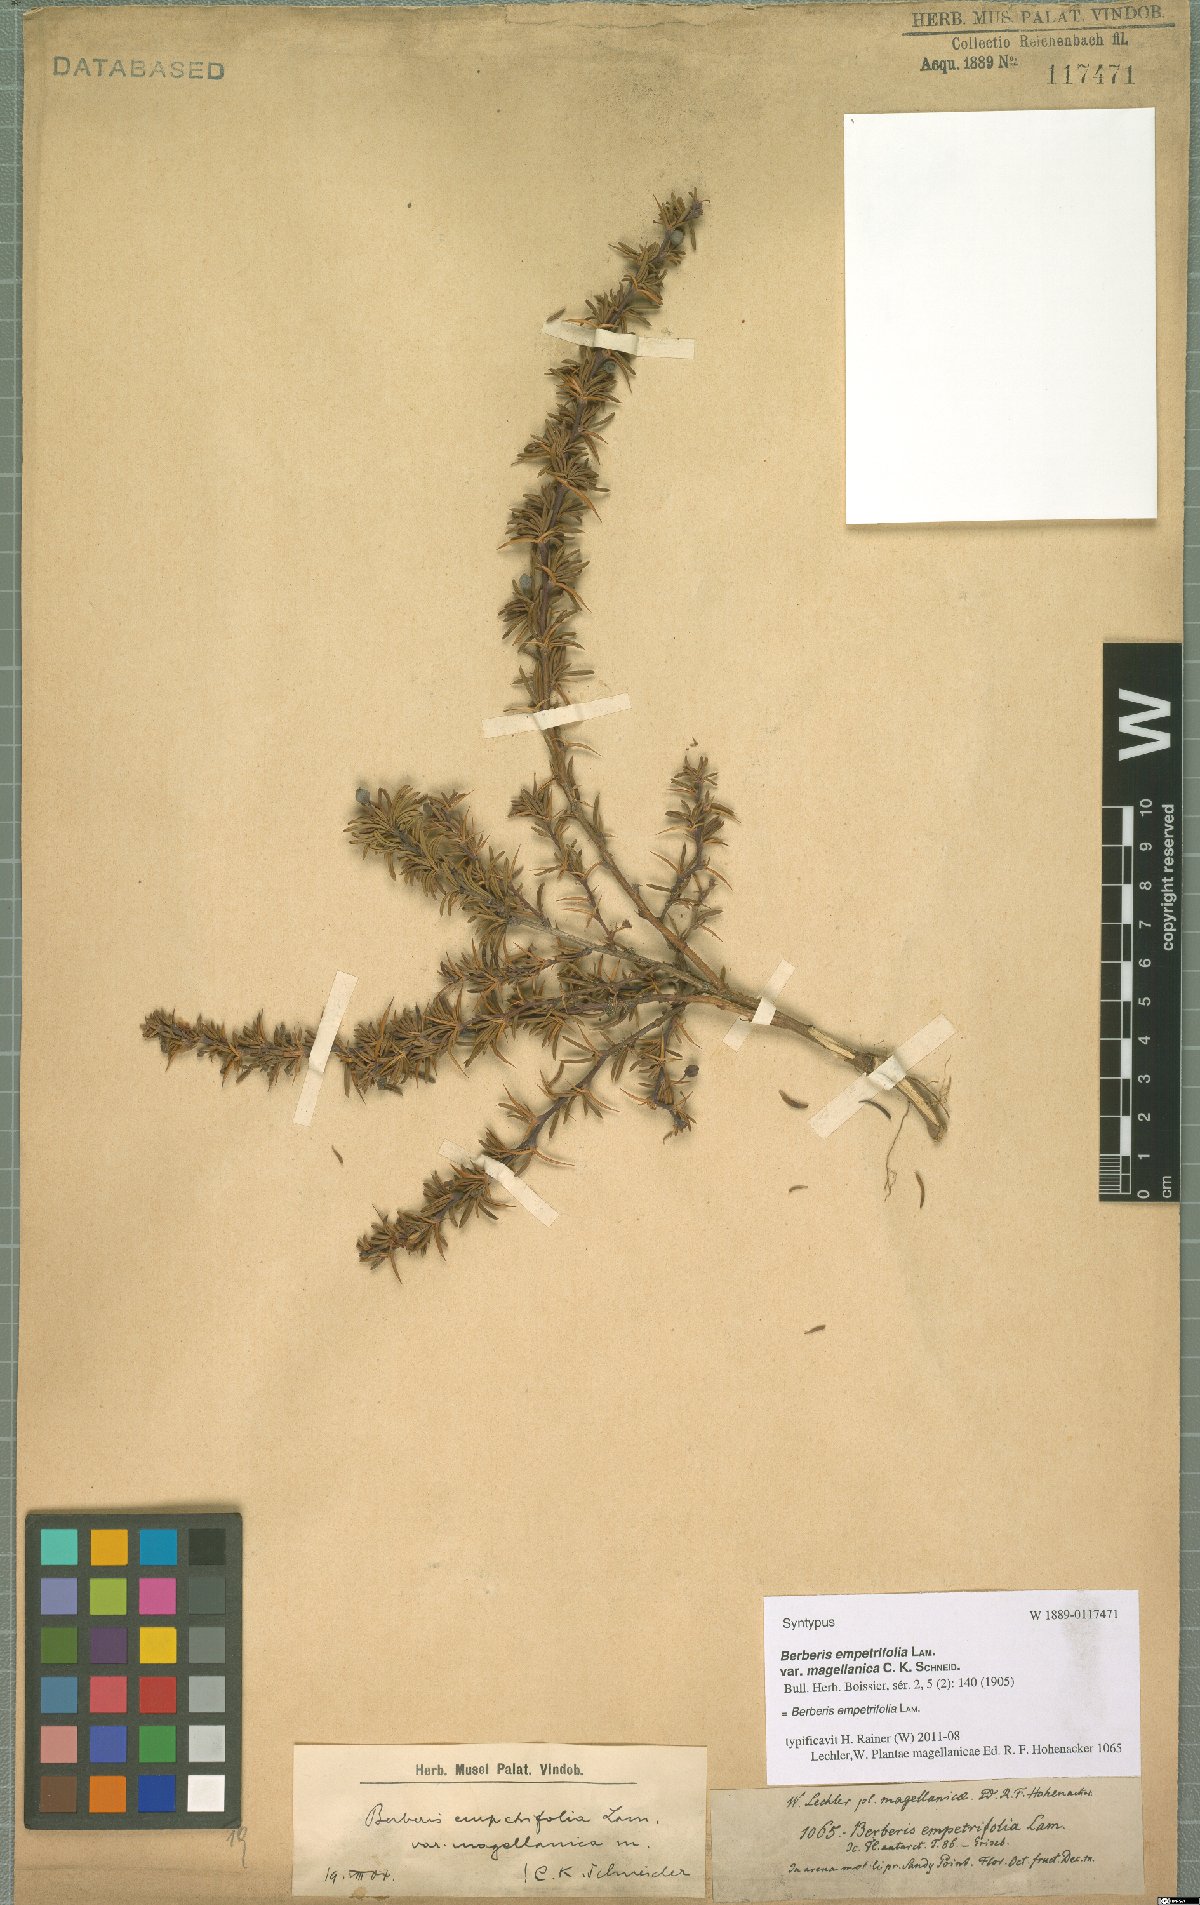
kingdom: Plantae
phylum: Tracheophyta
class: Magnoliopsida
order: Ranunculales
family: Berberidaceae
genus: Berberis
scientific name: Berberis empetrifolia
